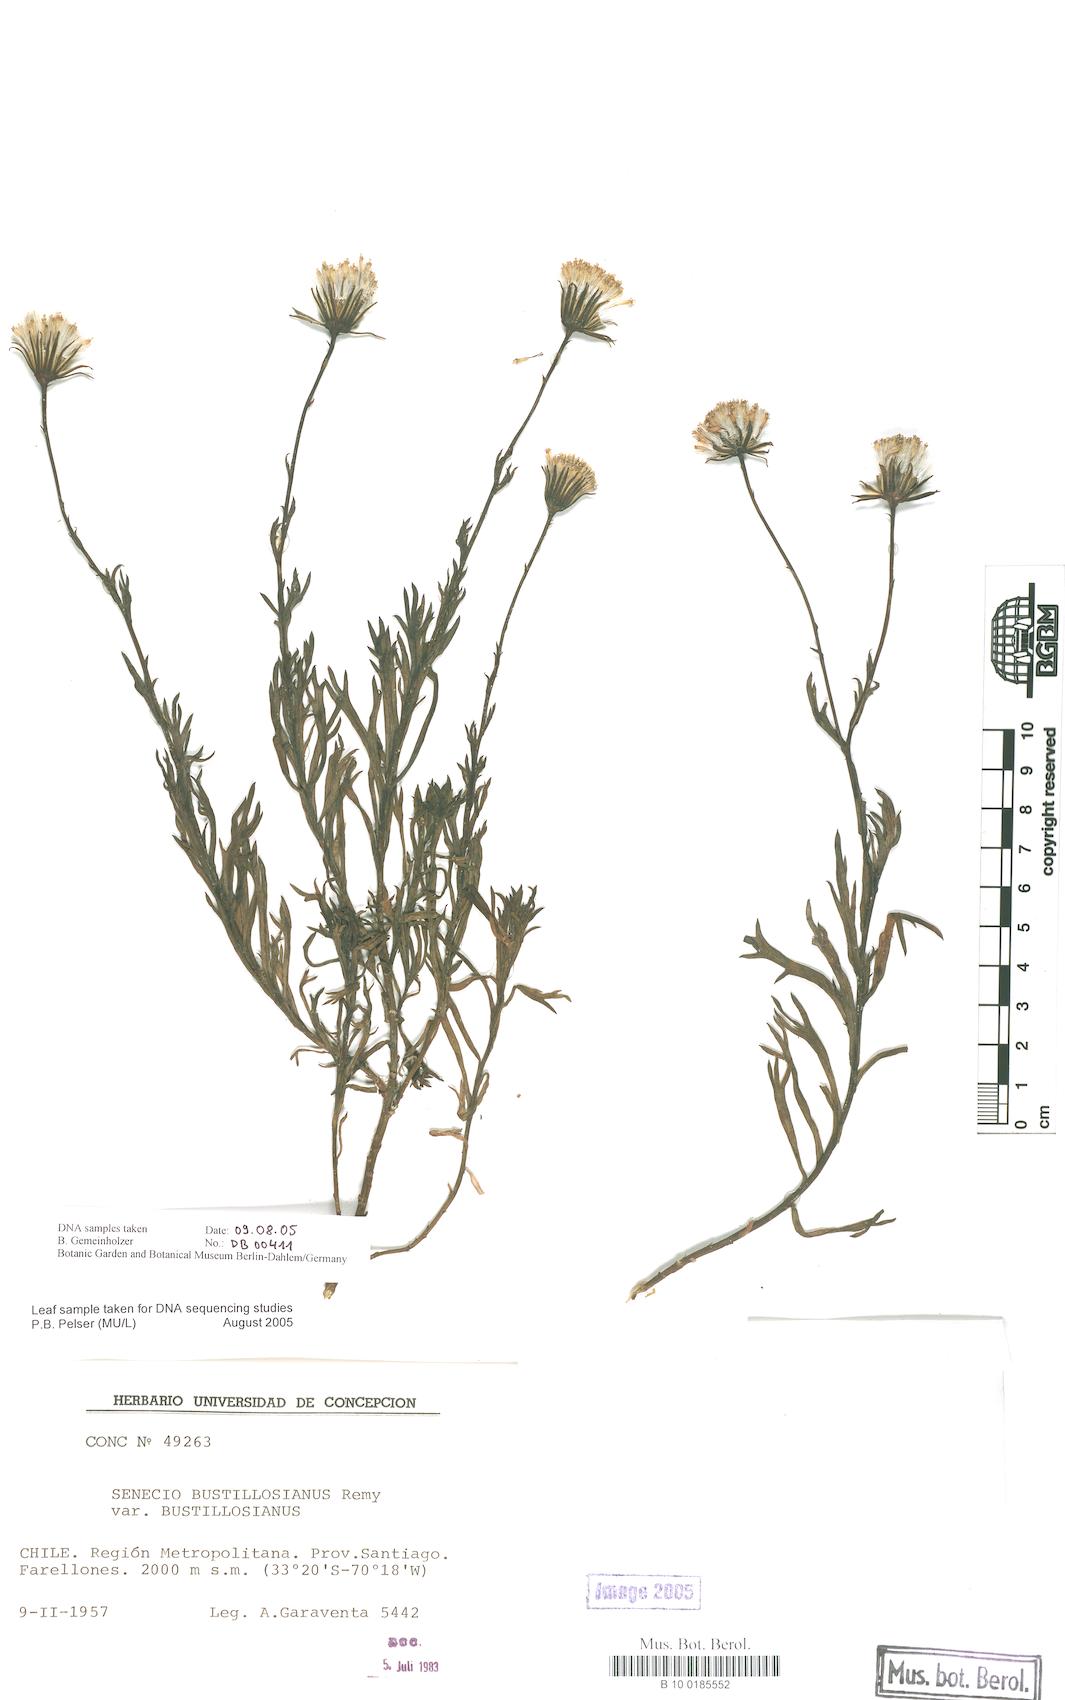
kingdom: Plantae
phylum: Tracheophyta
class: Magnoliopsida
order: Asterales
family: Asteraceae
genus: Senecio
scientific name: Senecio bustillosianus
